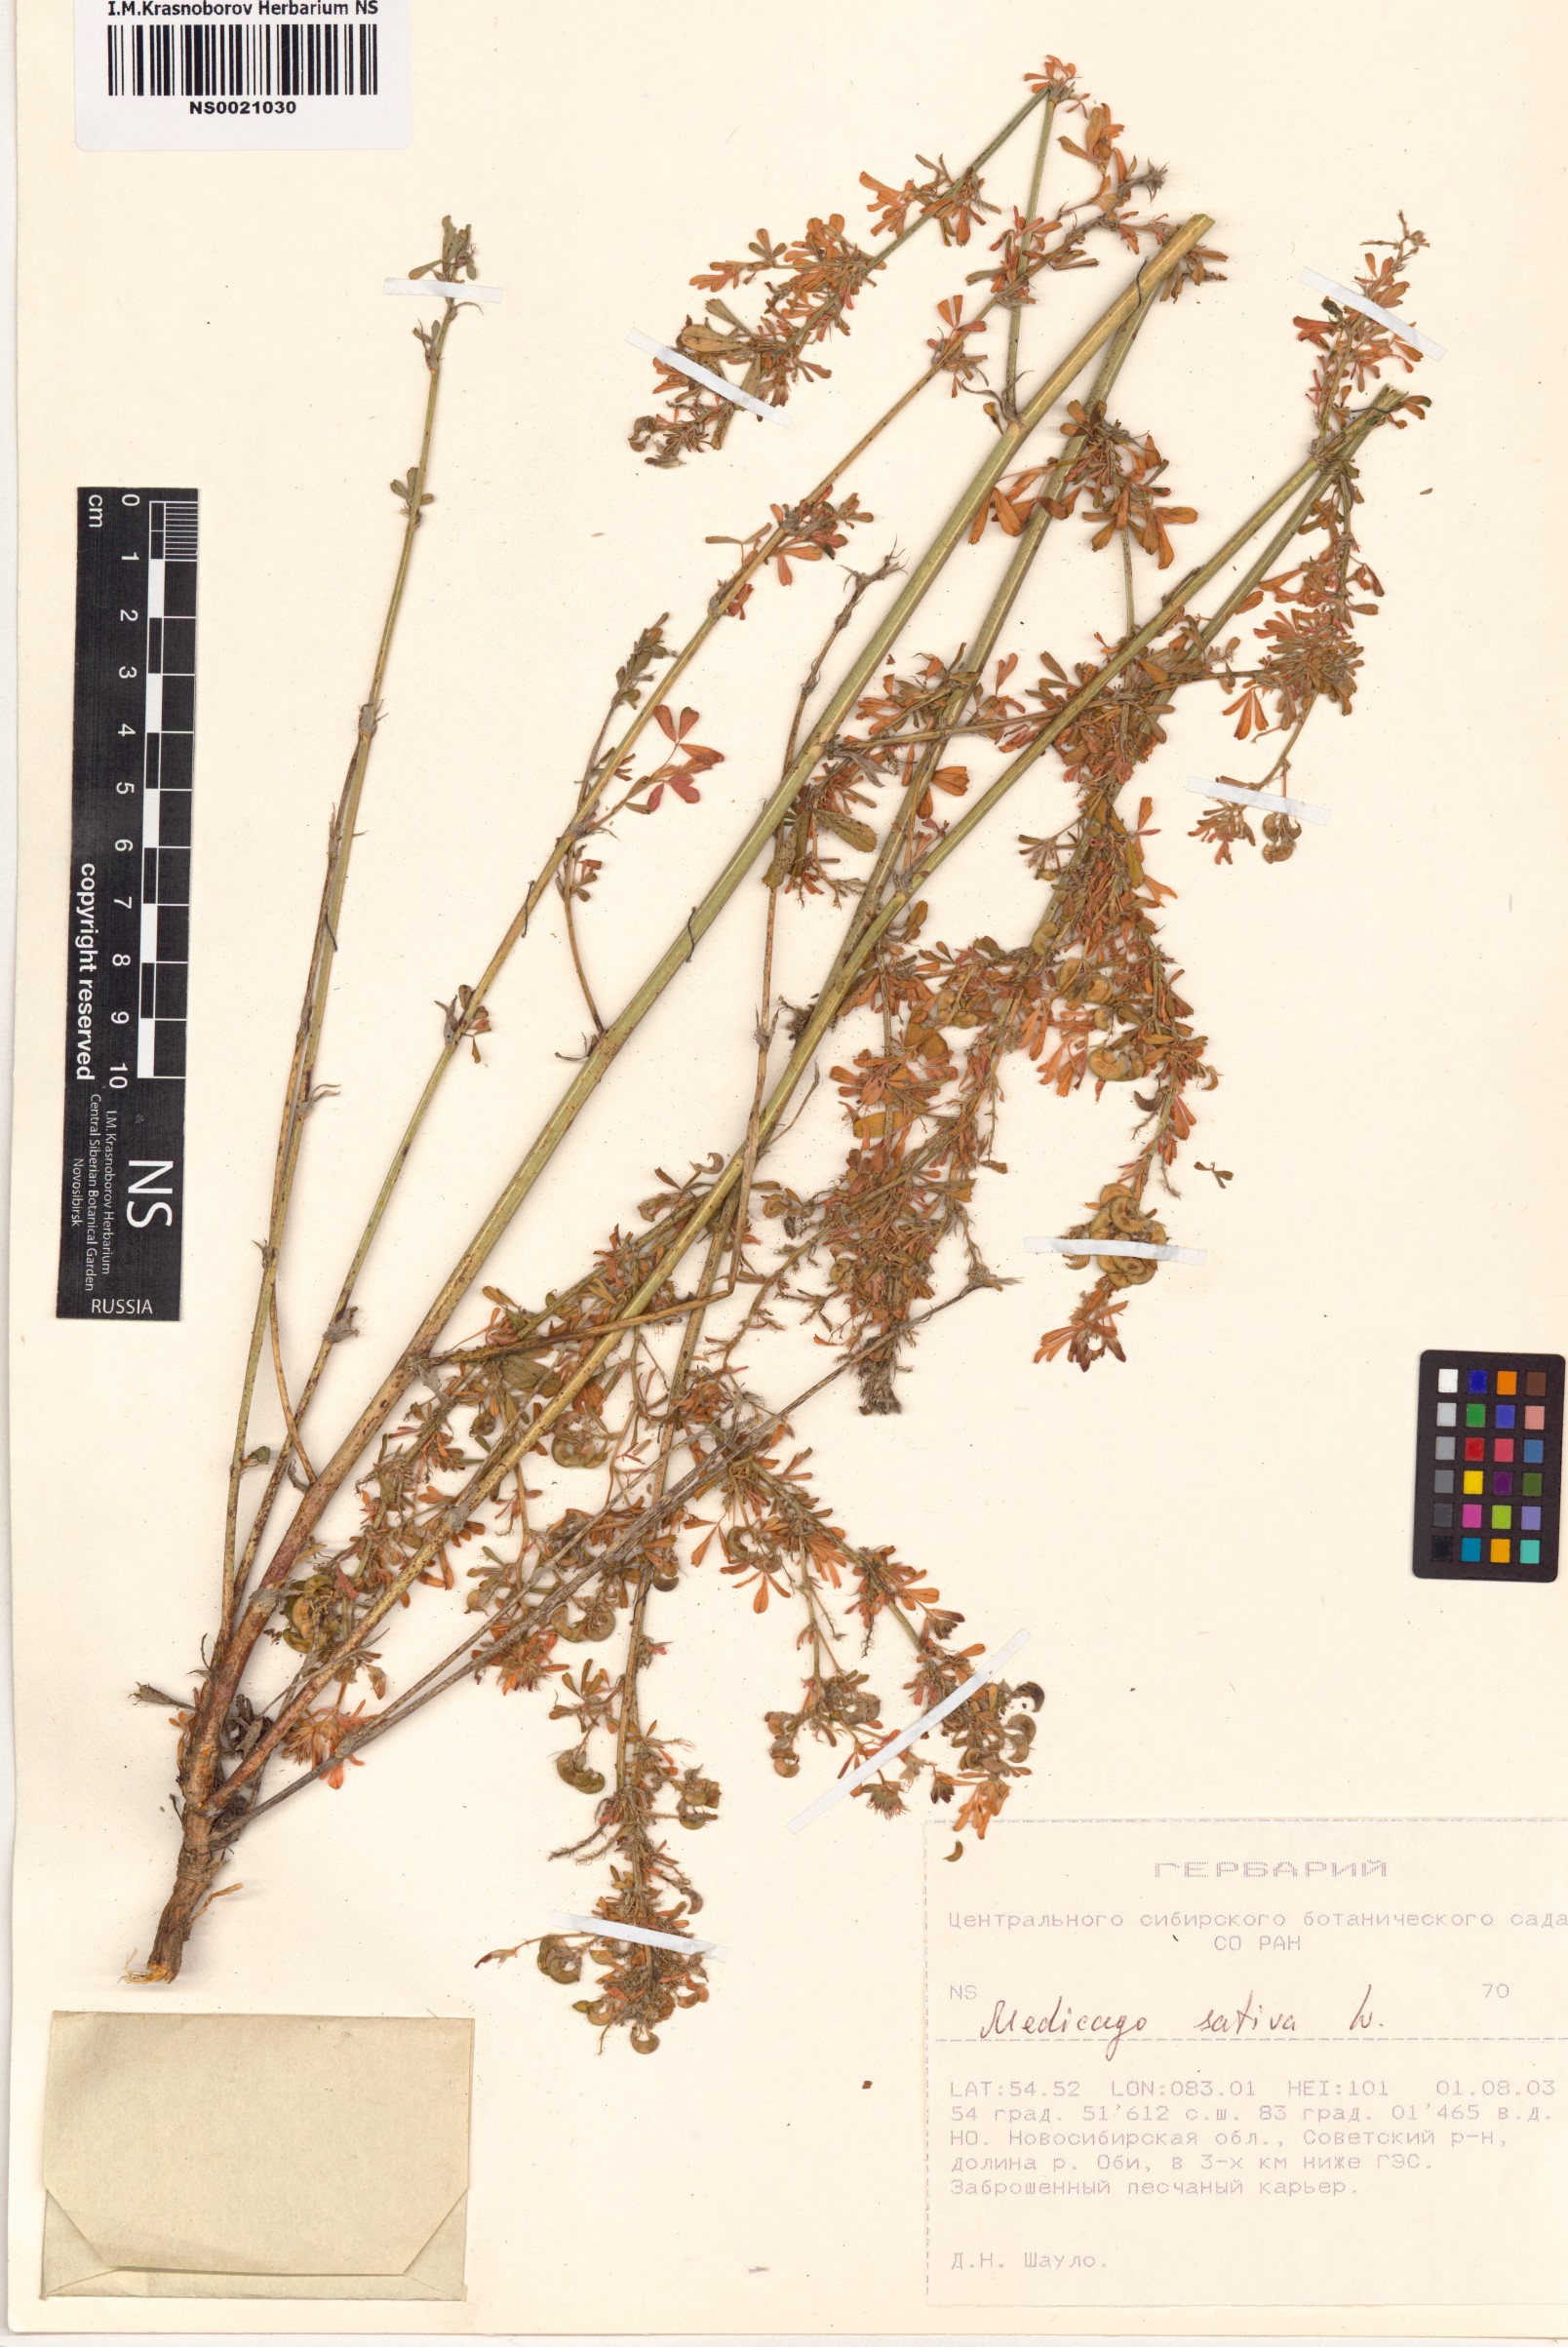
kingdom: Plantae
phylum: Tracheophyta
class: Magnoliopsida
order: Fabales
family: Fabaceae
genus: Medicago
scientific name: Medicago sativa
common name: Alfalfa
